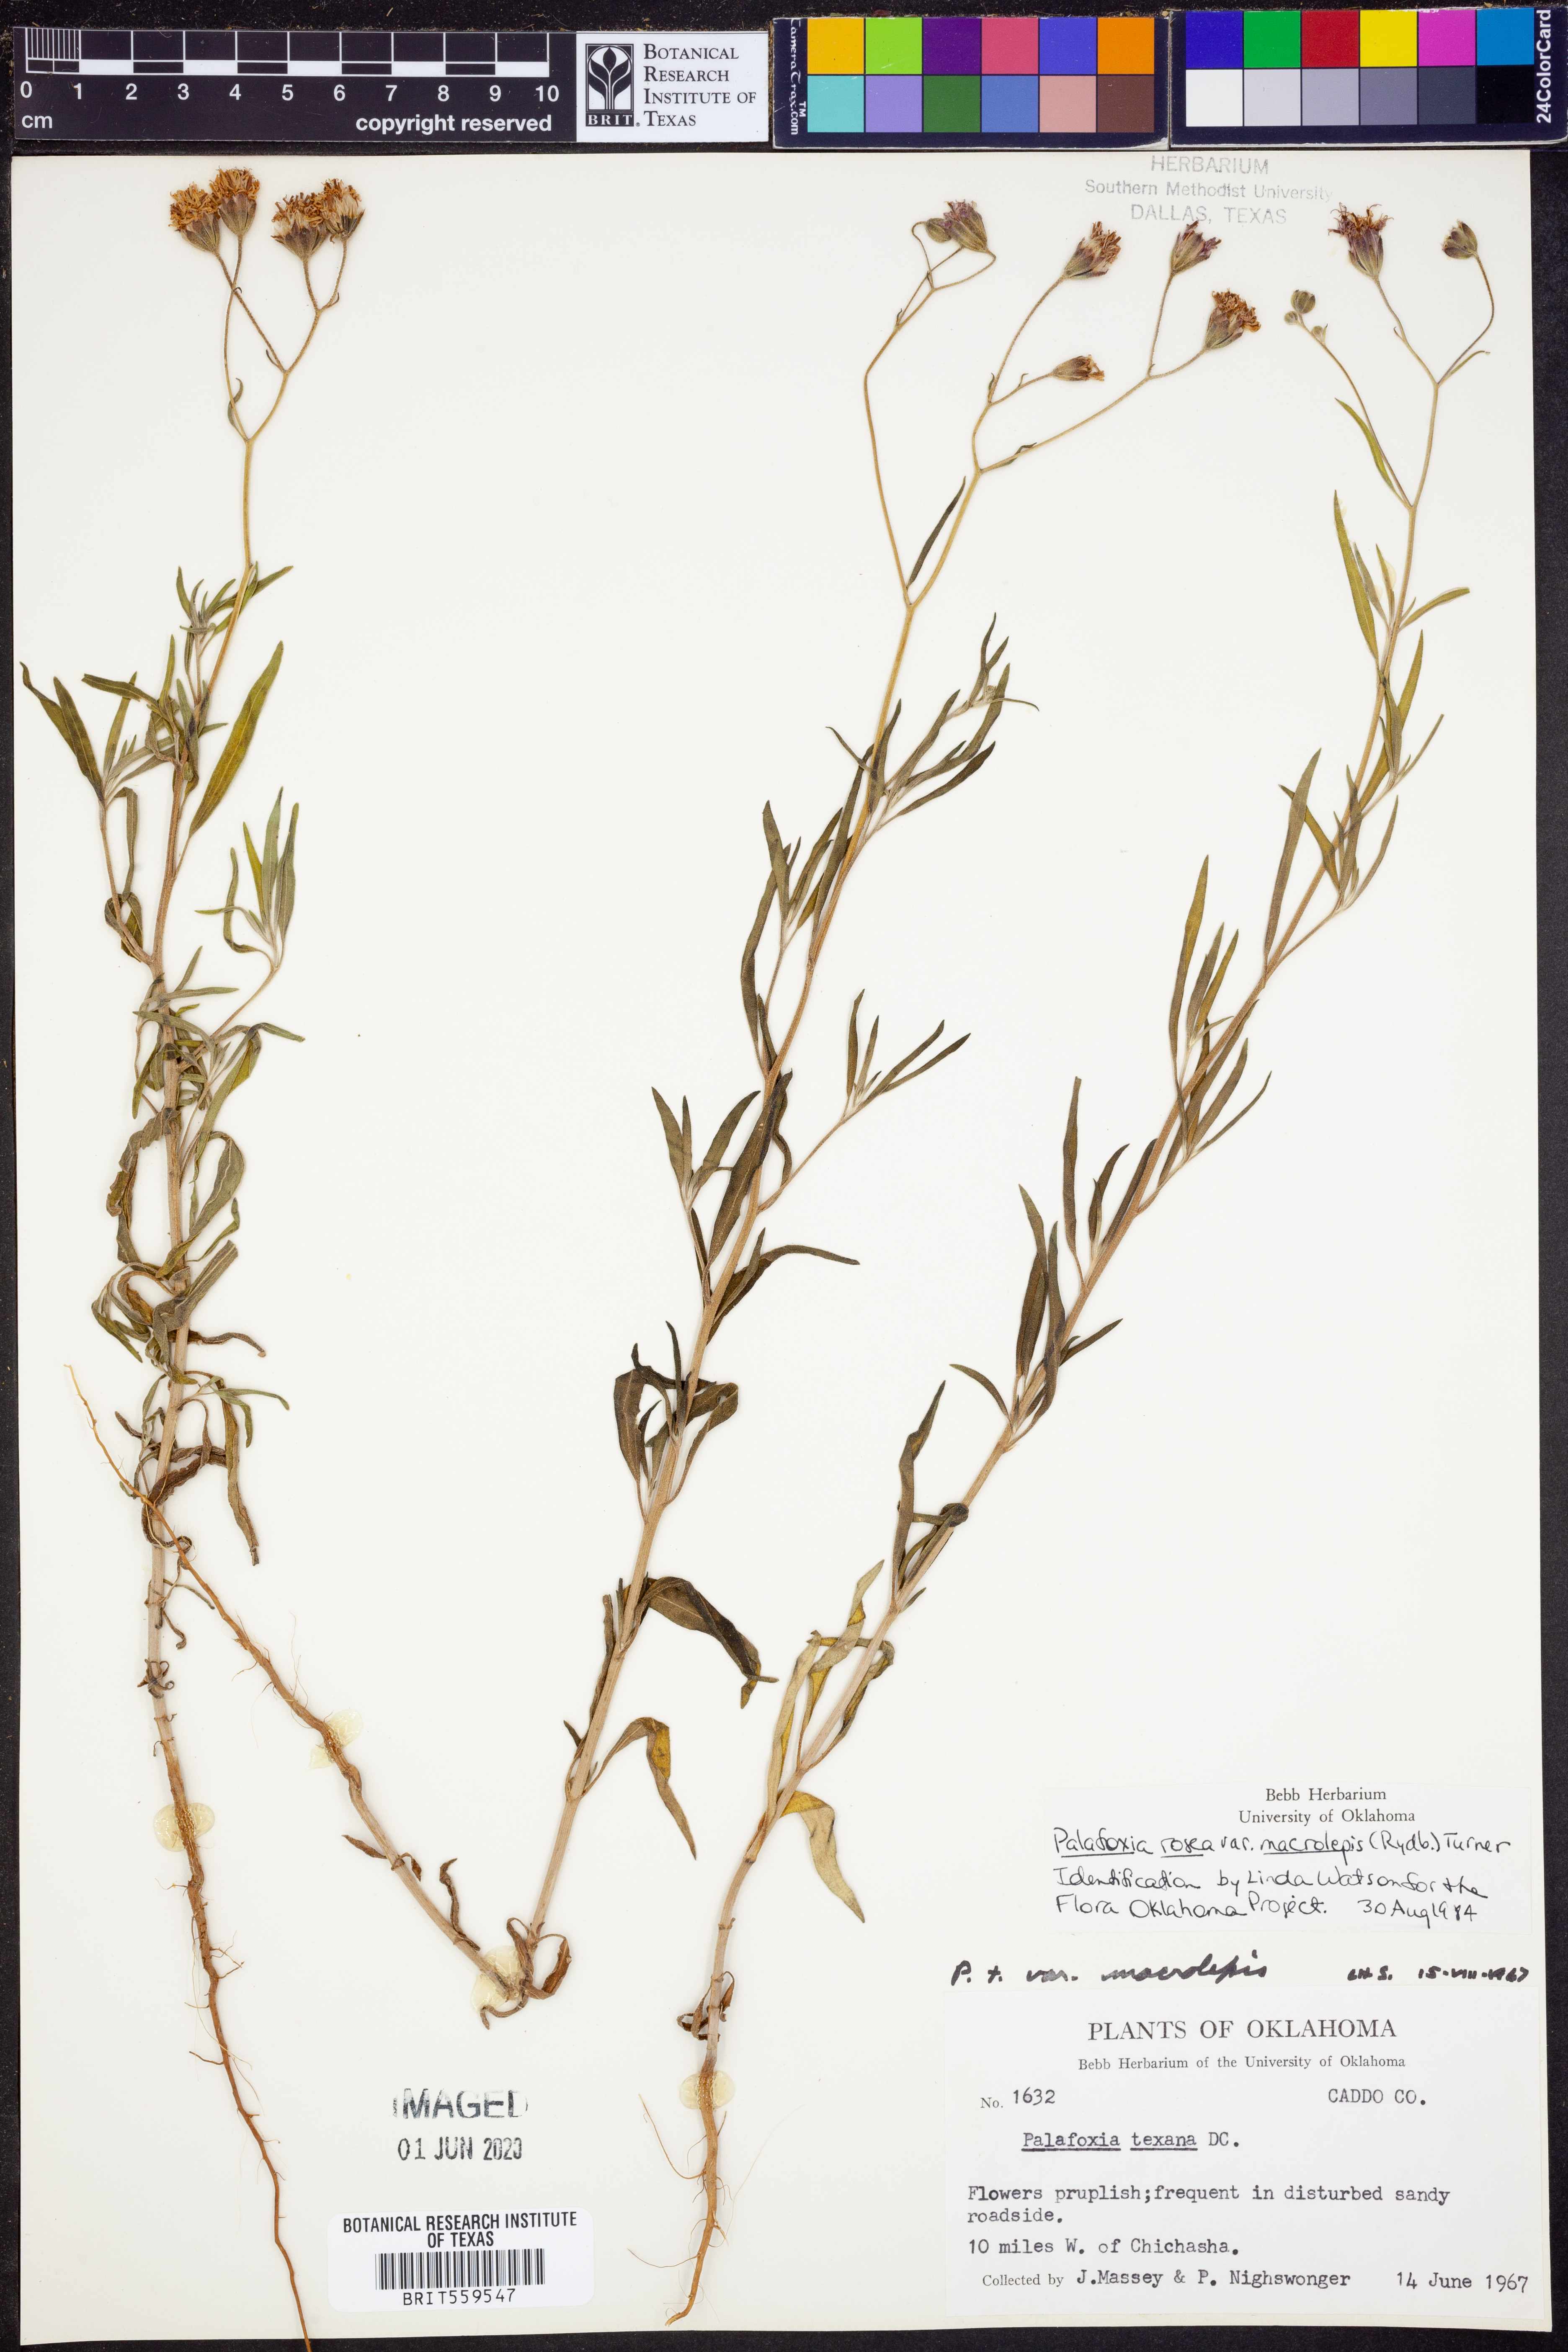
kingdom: Plantae
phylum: Tracheophyta
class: Magnoliopsida
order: Asterales
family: Asteraceae
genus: Palafoxia
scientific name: Palafoxia rosea
